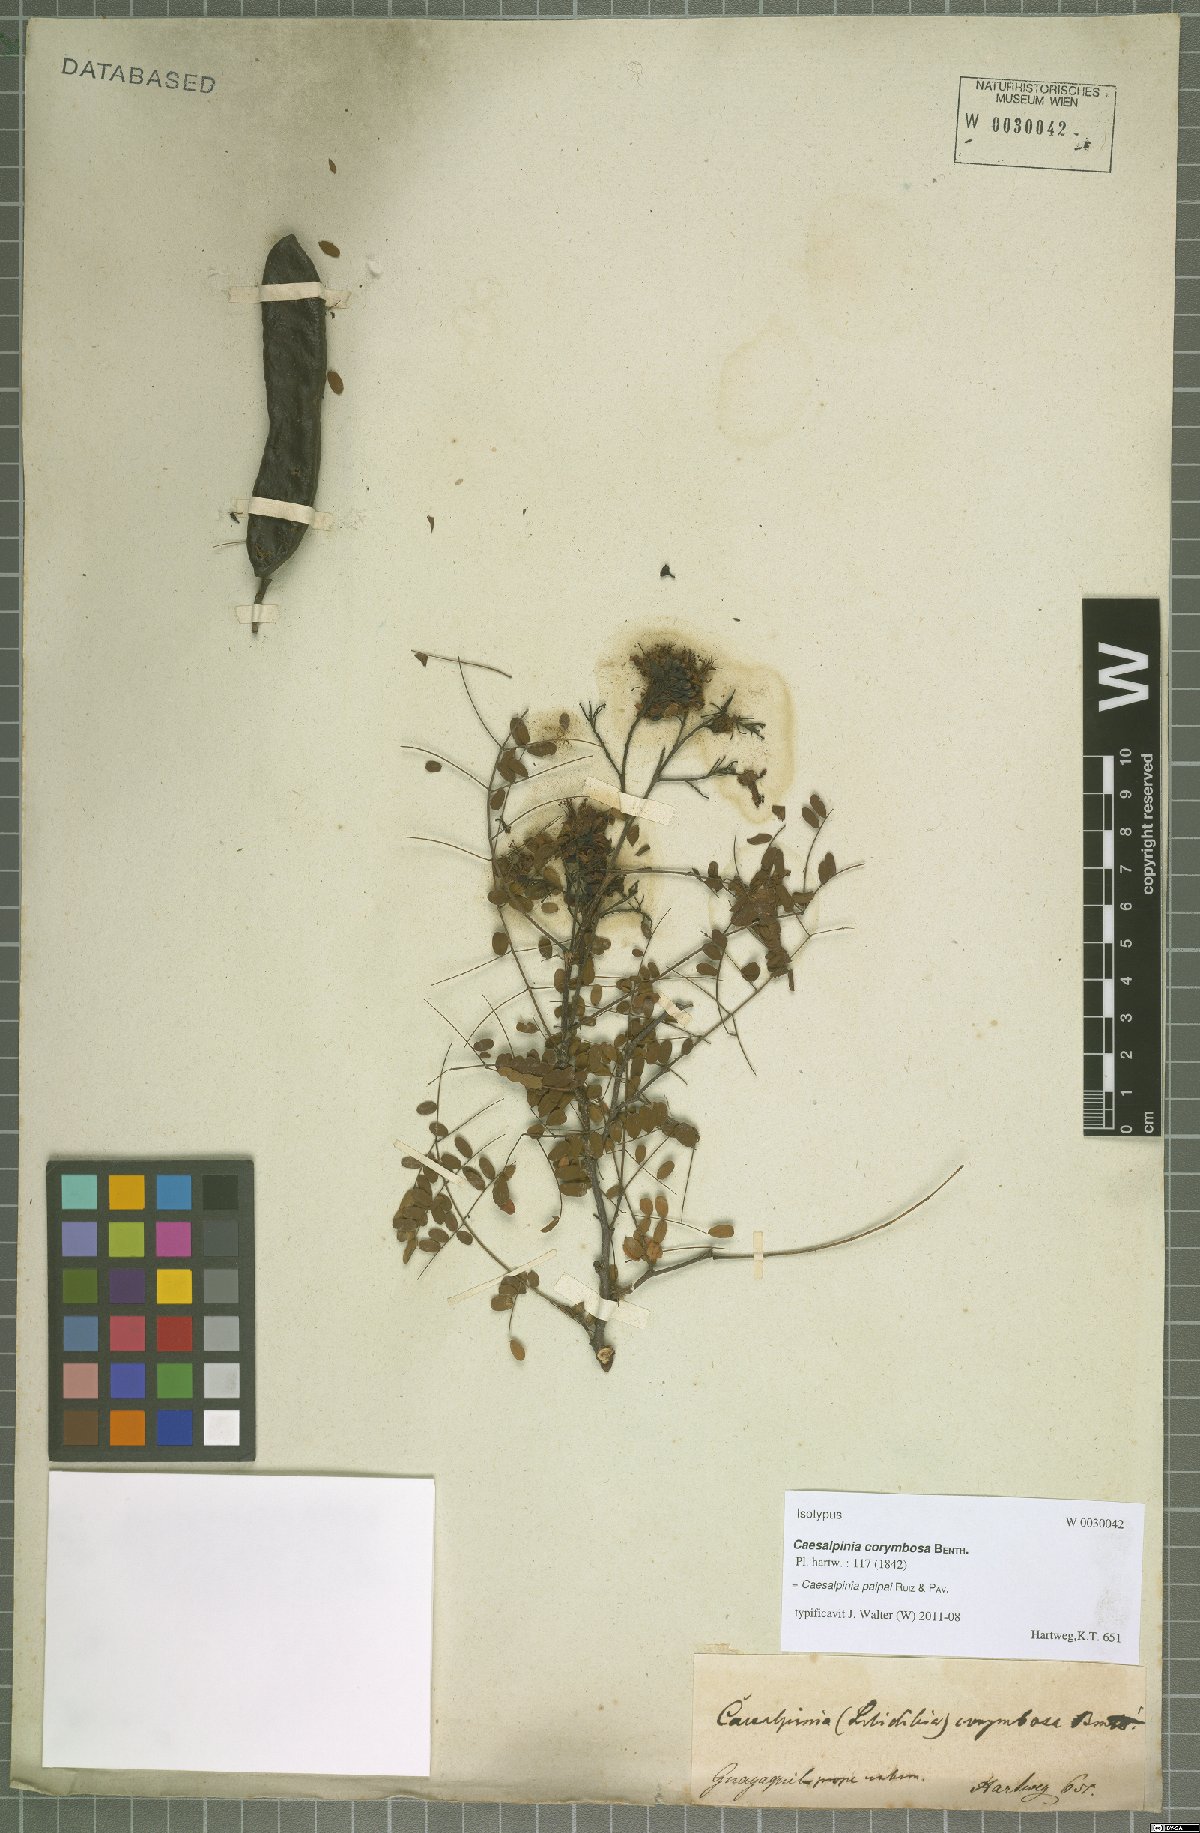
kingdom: Plantae
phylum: Tracheophyta
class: Magnoliopsida
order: Fabales
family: Fabaceae
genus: Libidibia
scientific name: Libidibia glabrata
